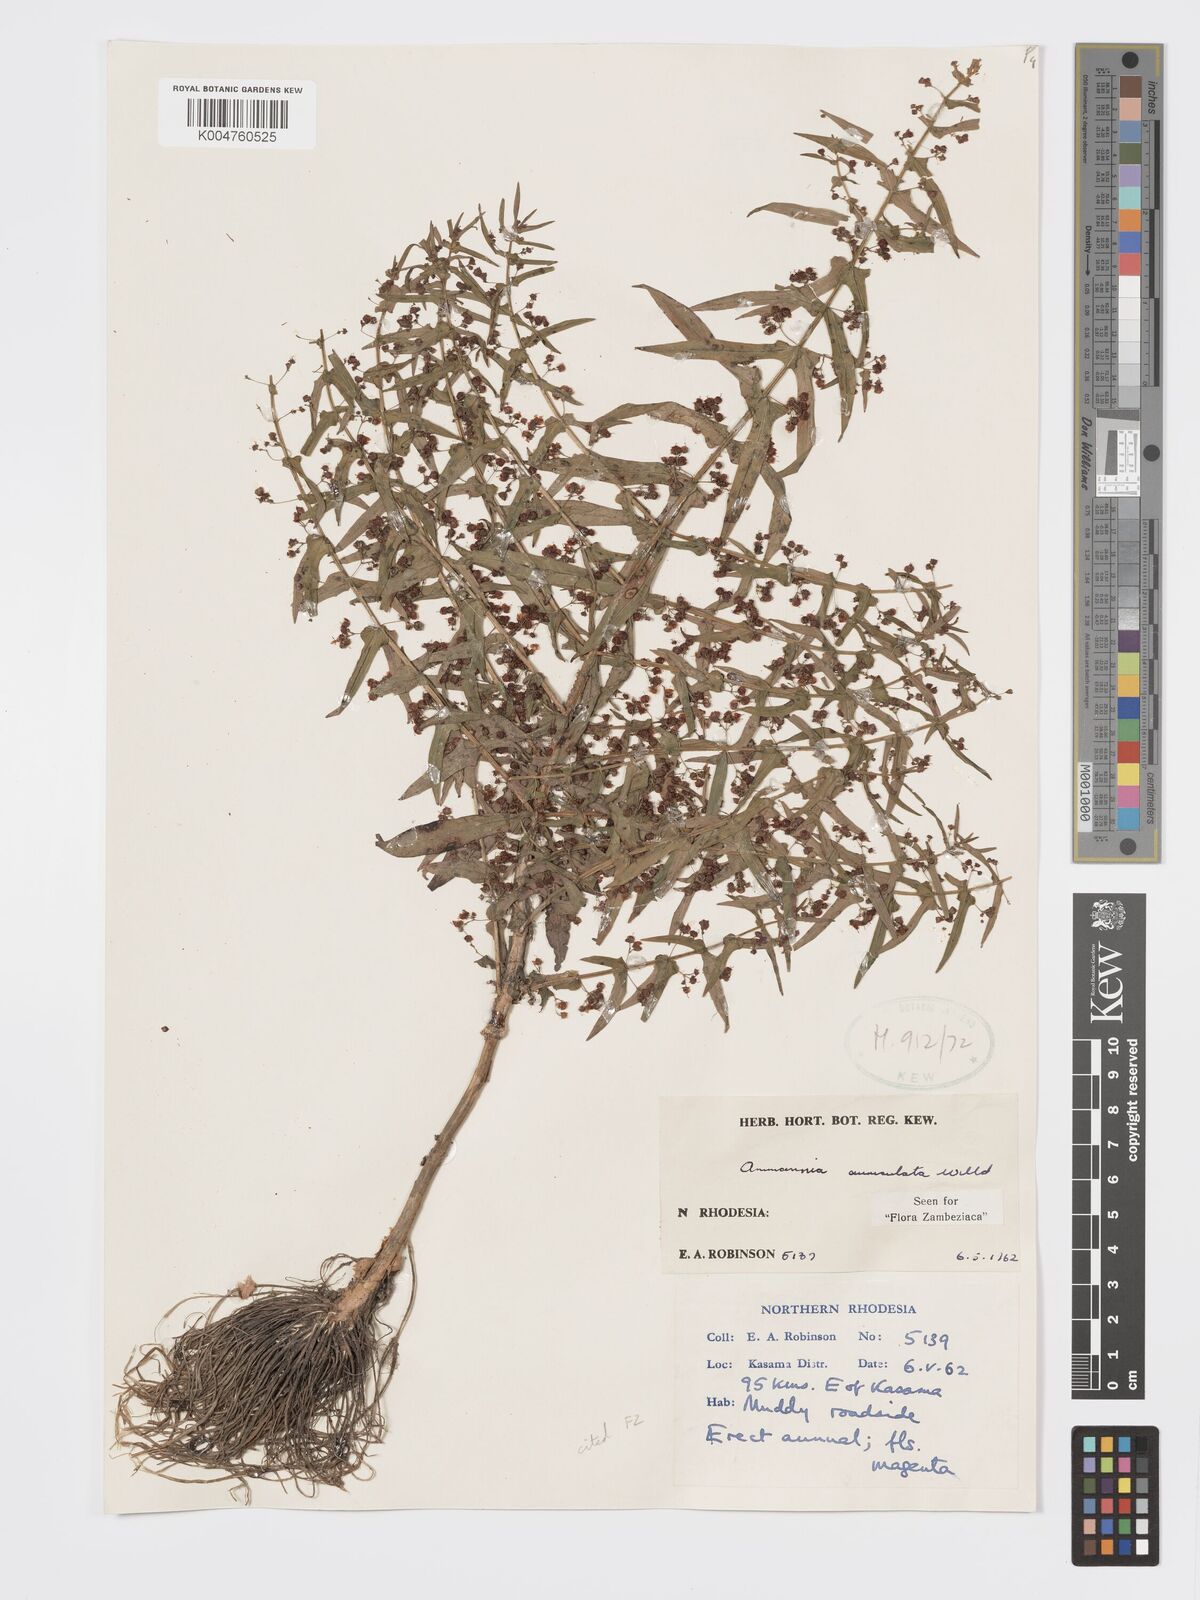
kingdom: Plantae
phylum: Tracheophyta
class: Magnoliopsida
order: Myrtales
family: Lythraceae
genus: Ammannia
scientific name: Ammannia auriculata
